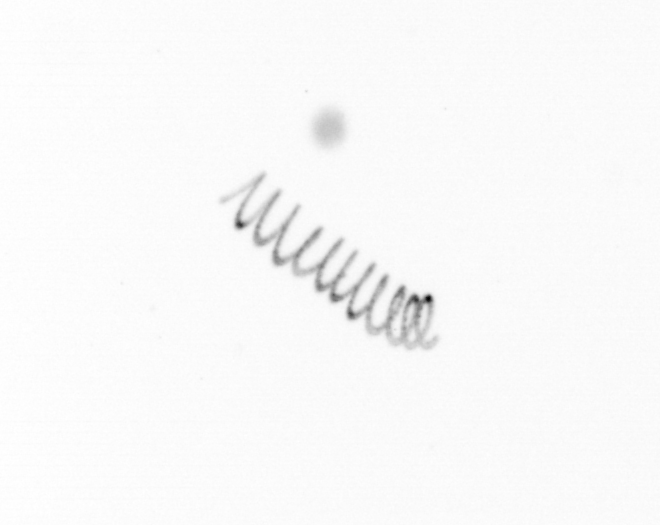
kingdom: Chromista
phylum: Ochrophyta
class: Bacillariophyceae
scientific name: Bacillariophyceae
